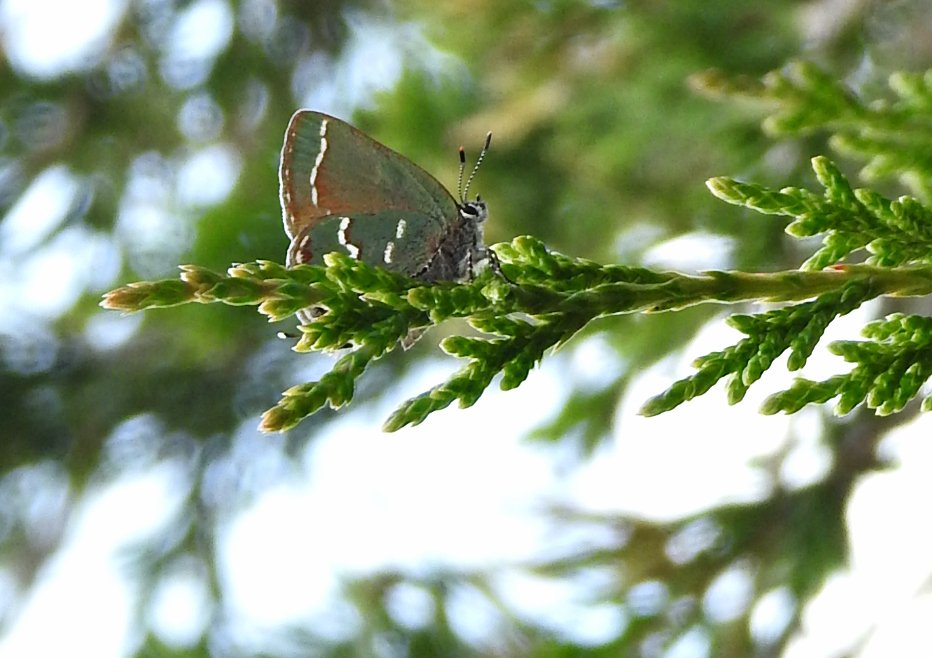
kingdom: Animalia
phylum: Arthropoda
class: Insecta
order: Lepidoptera
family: Lycaenidae
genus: Mitoura
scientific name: Mitoura gryneus
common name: Juniper Hairstreak
